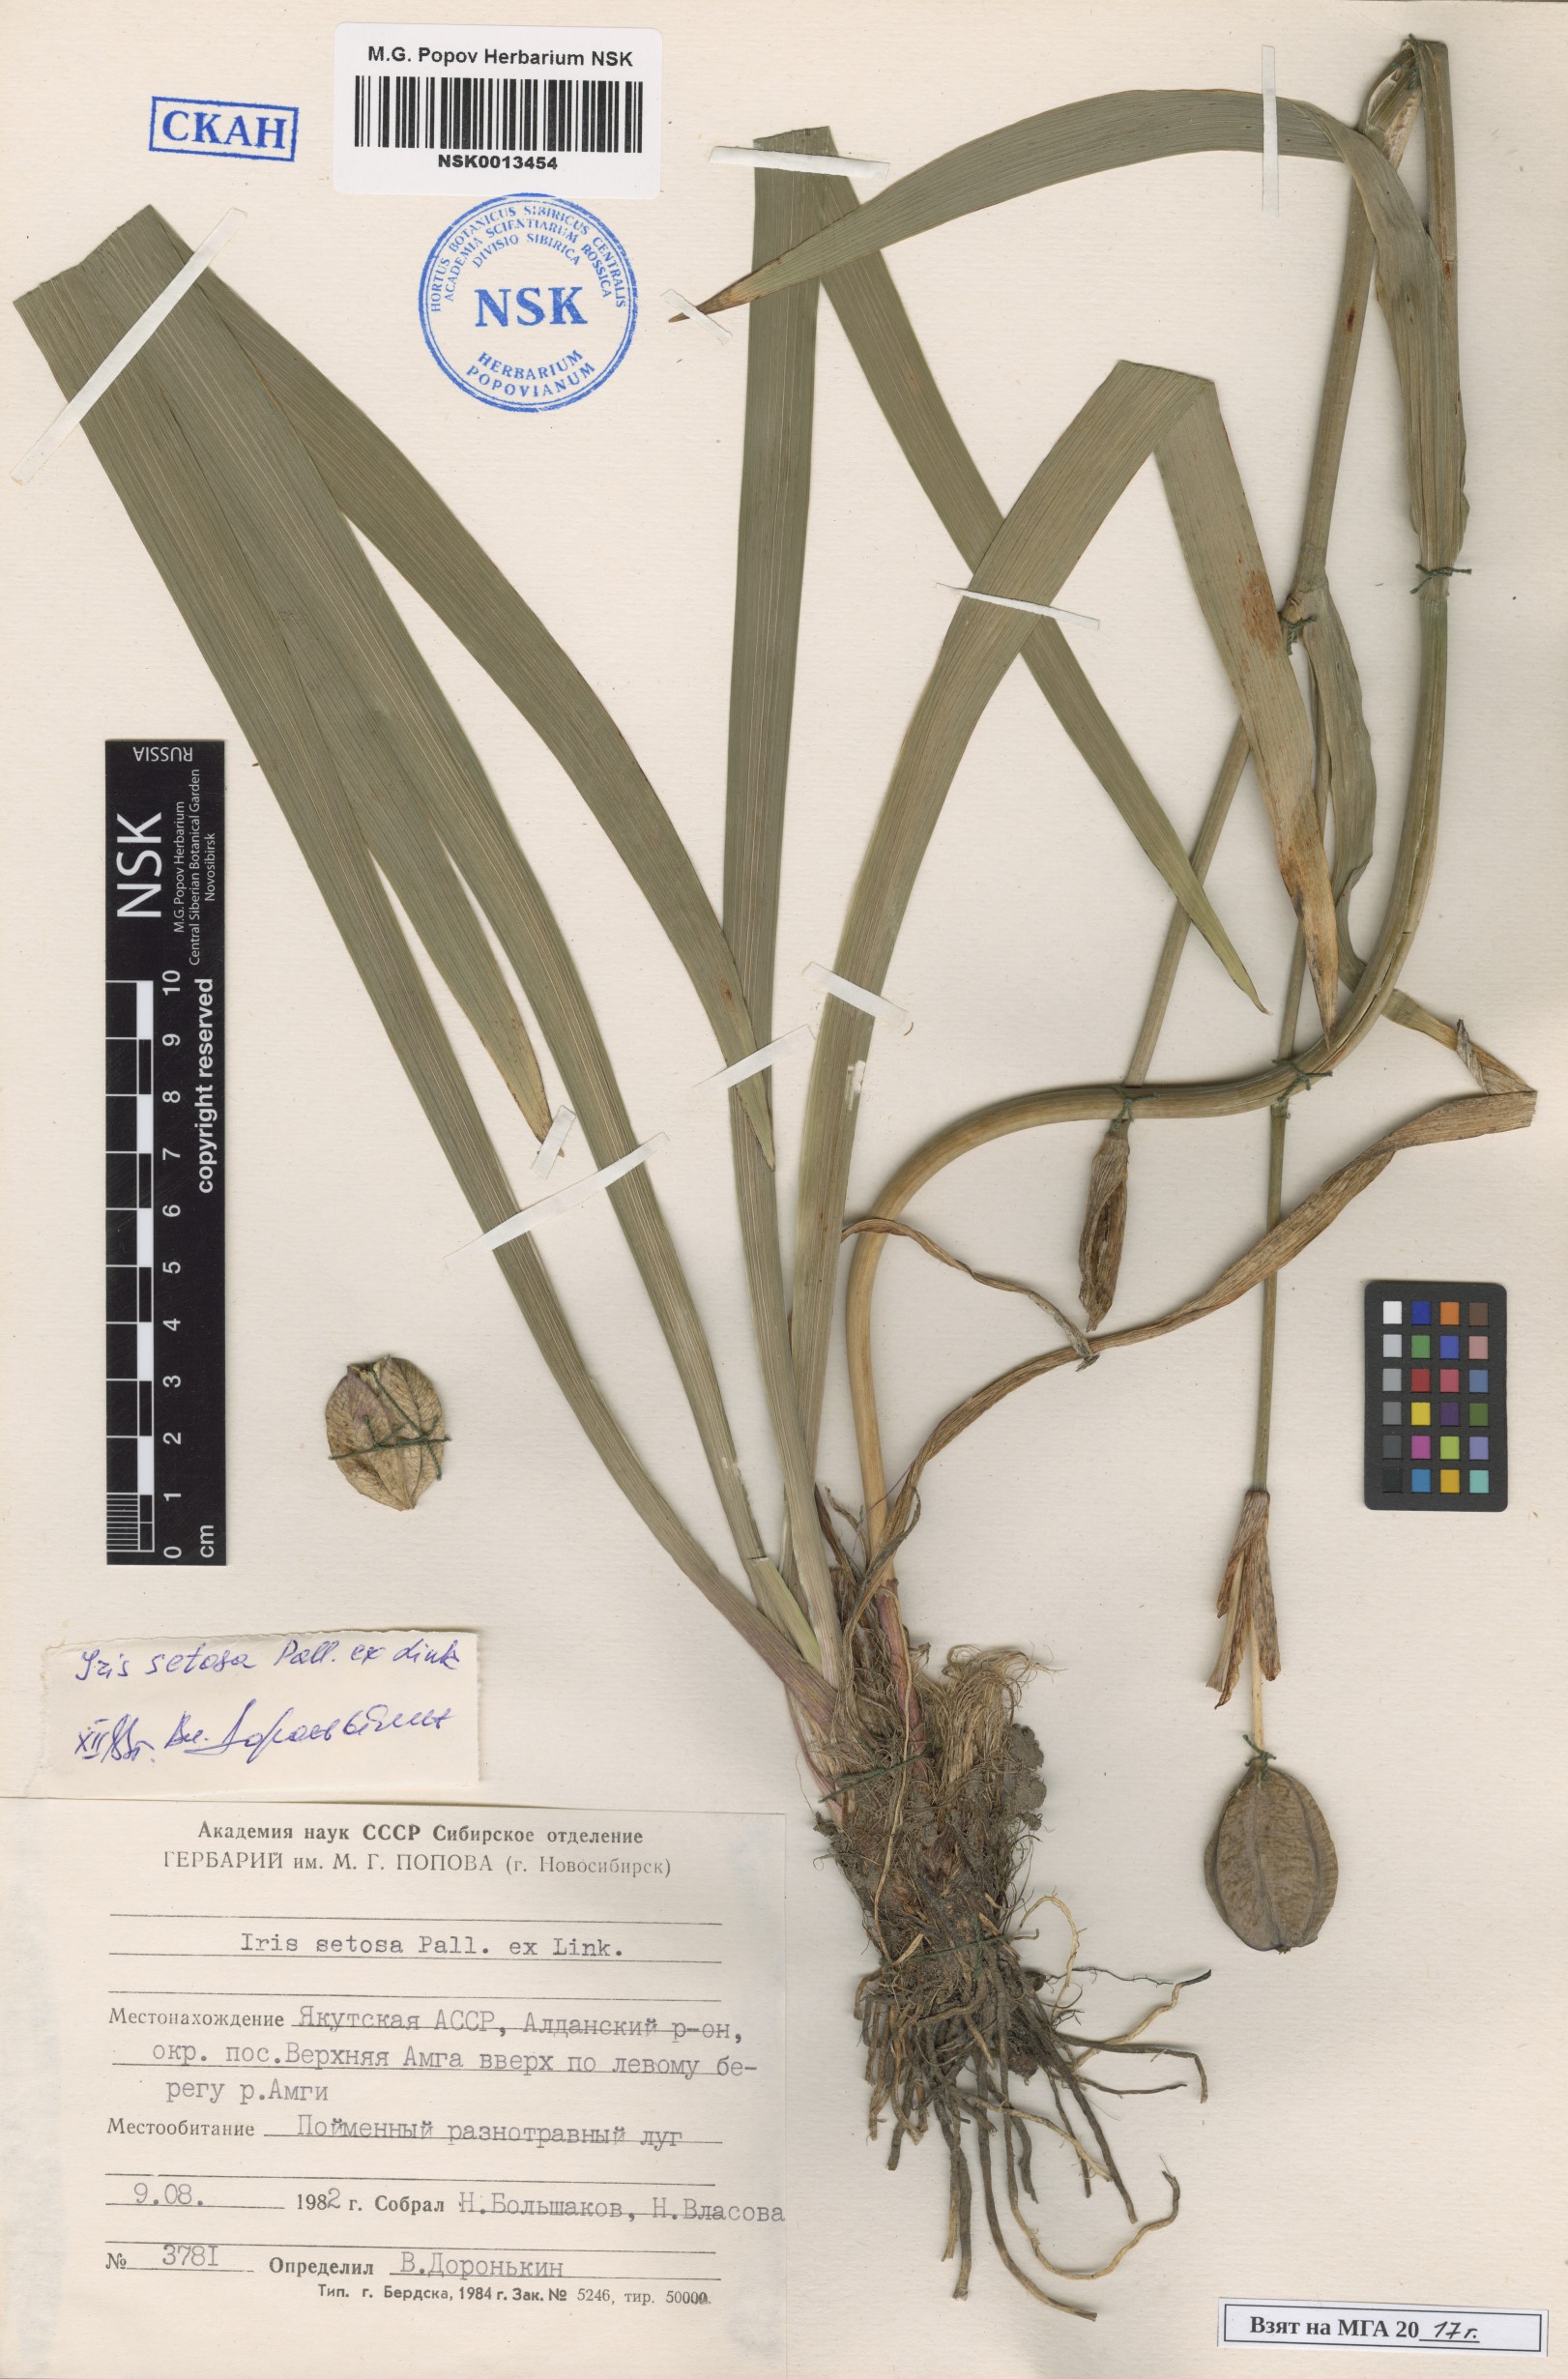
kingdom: Plantae
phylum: Tracheophyta
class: Liliopsida
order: Asparagales
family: Iridaceae
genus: Iris
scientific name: Iris setosa
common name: Arctic blue flag
